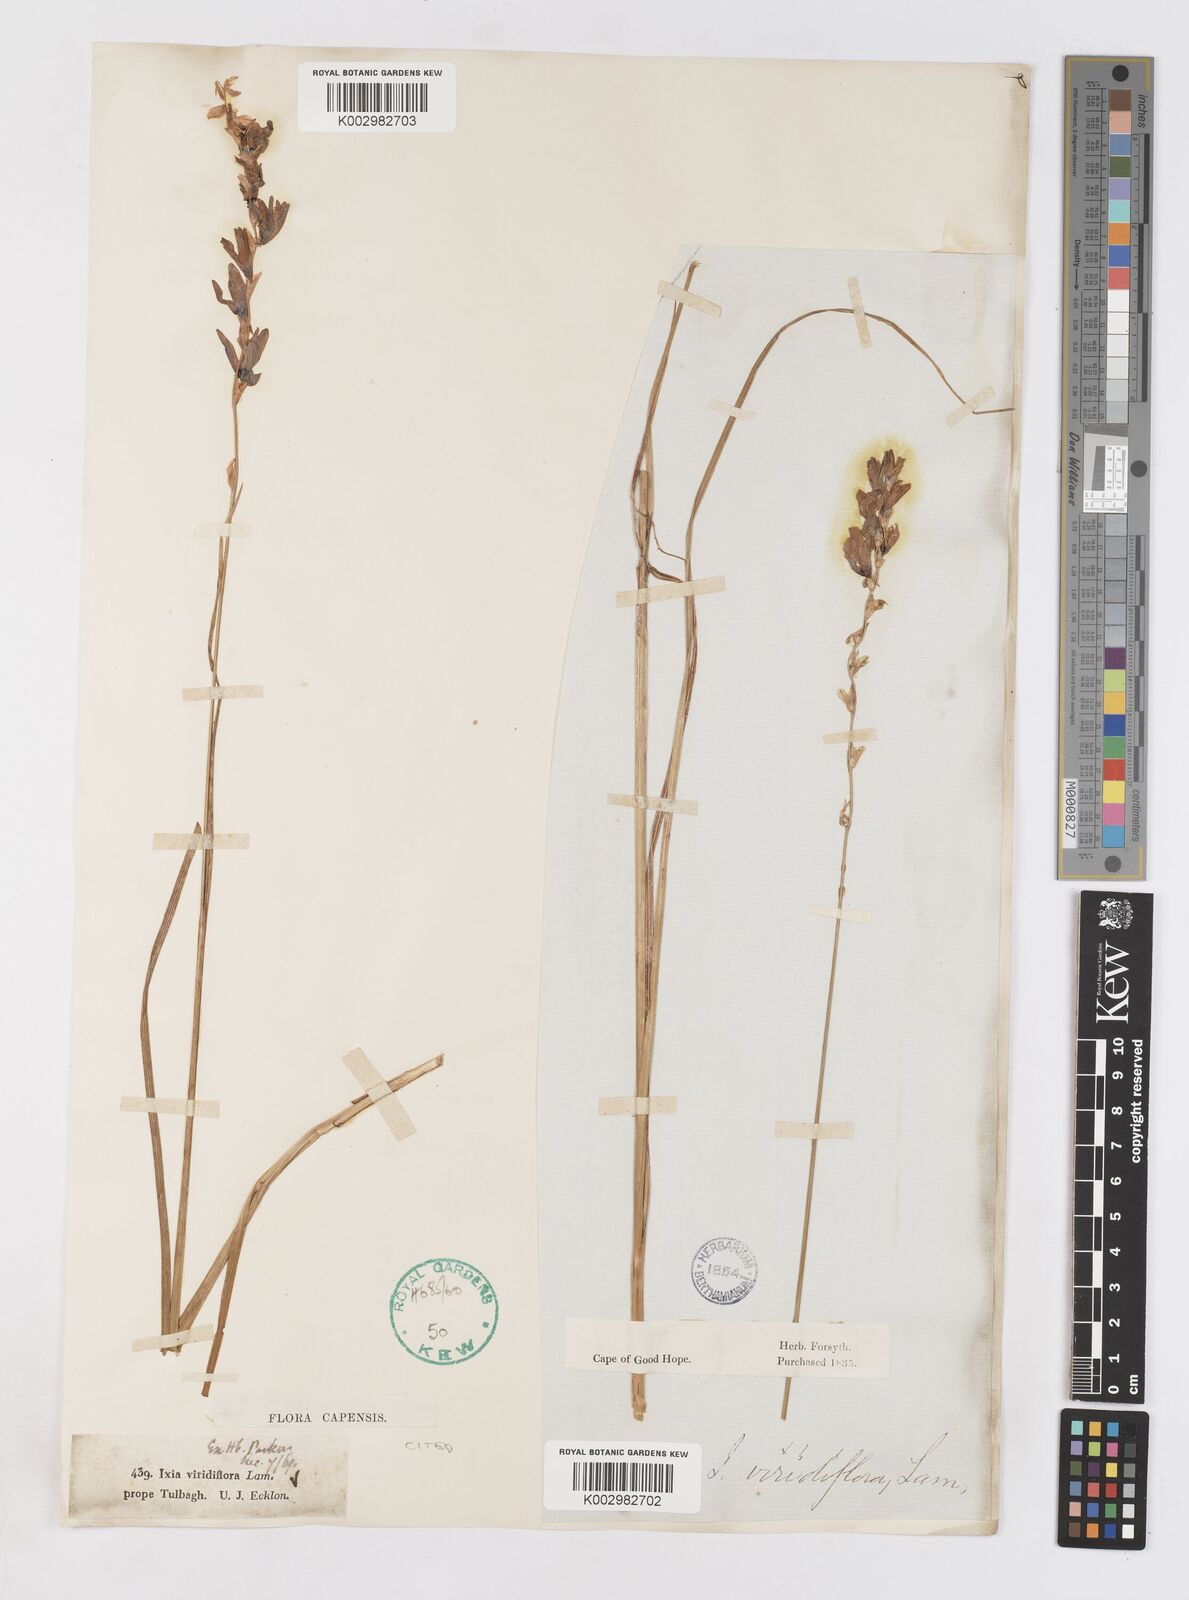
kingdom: Plantae
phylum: Tracheophyta
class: Liliopsida
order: Asparagales
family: Iridaceae
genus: Ixia
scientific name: Ixia viridiflora
